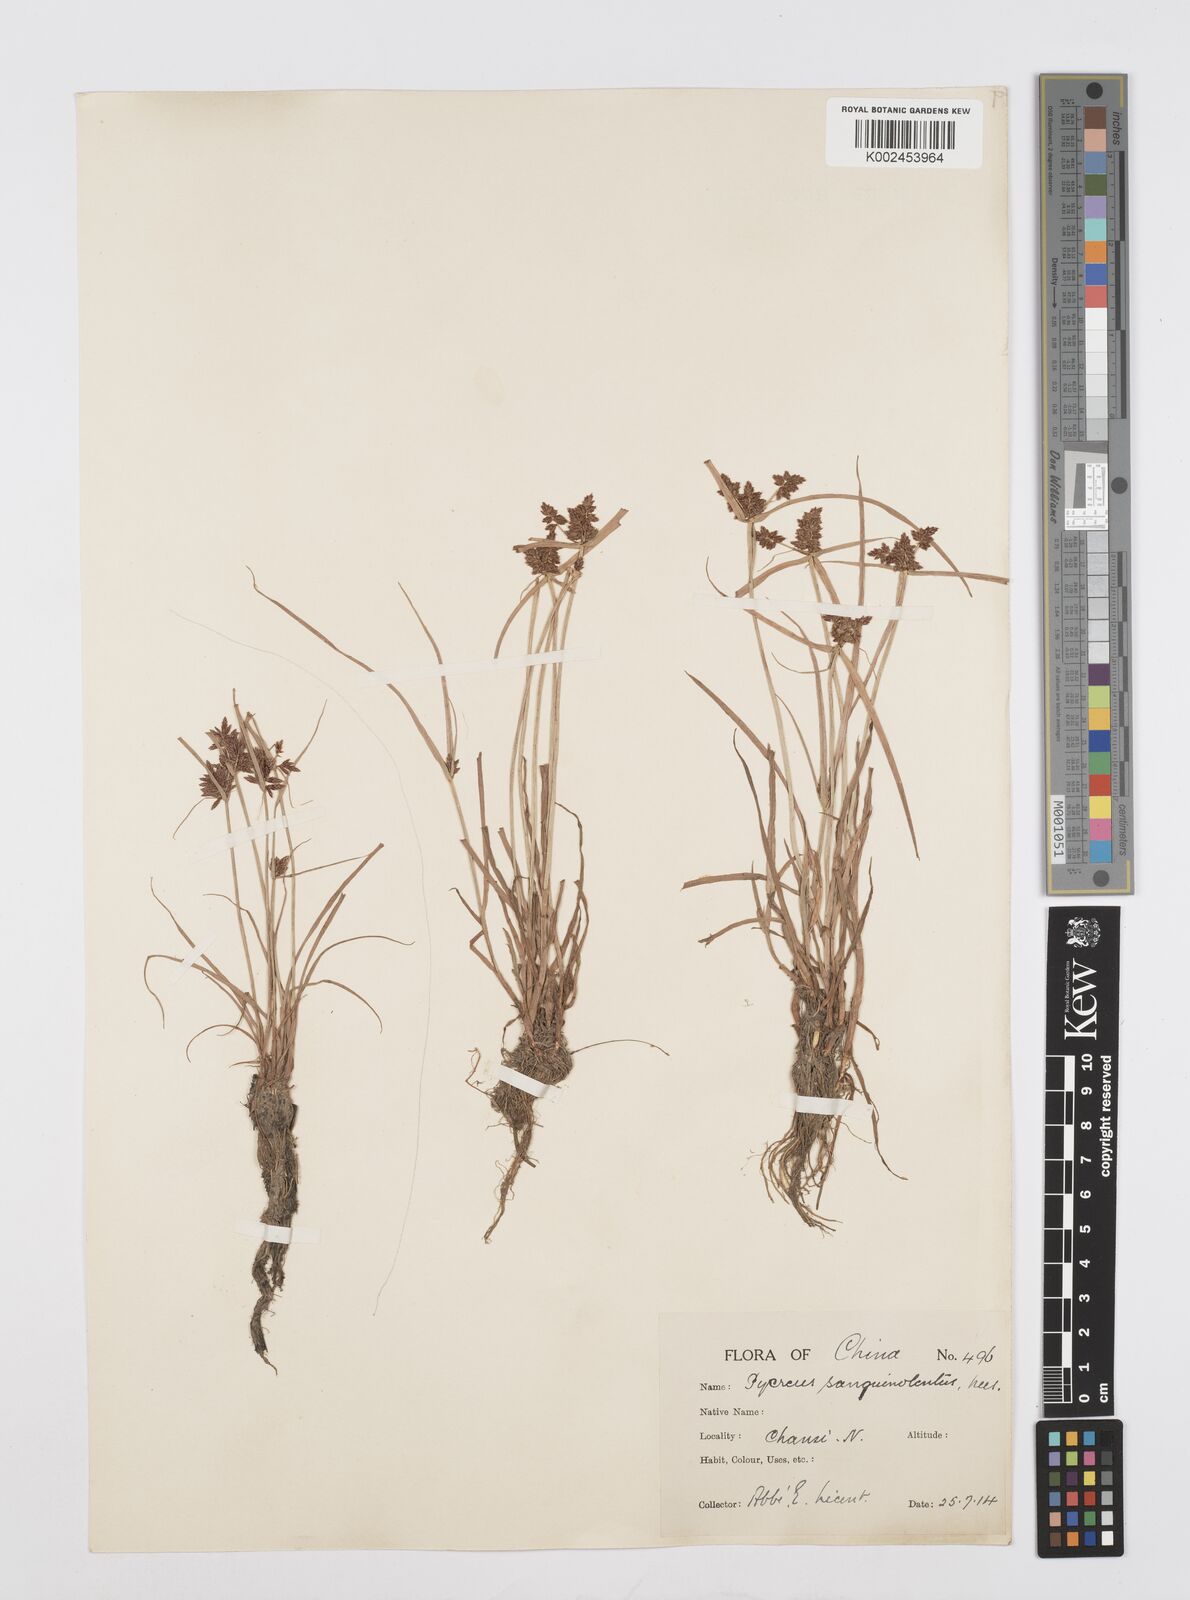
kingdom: Plantae
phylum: Tracheophyta
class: Liliopsida
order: Poales
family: Cyperaceae
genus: Cyperus
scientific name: Cyperus sanguinolentus
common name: Purpleglume flatsedge
